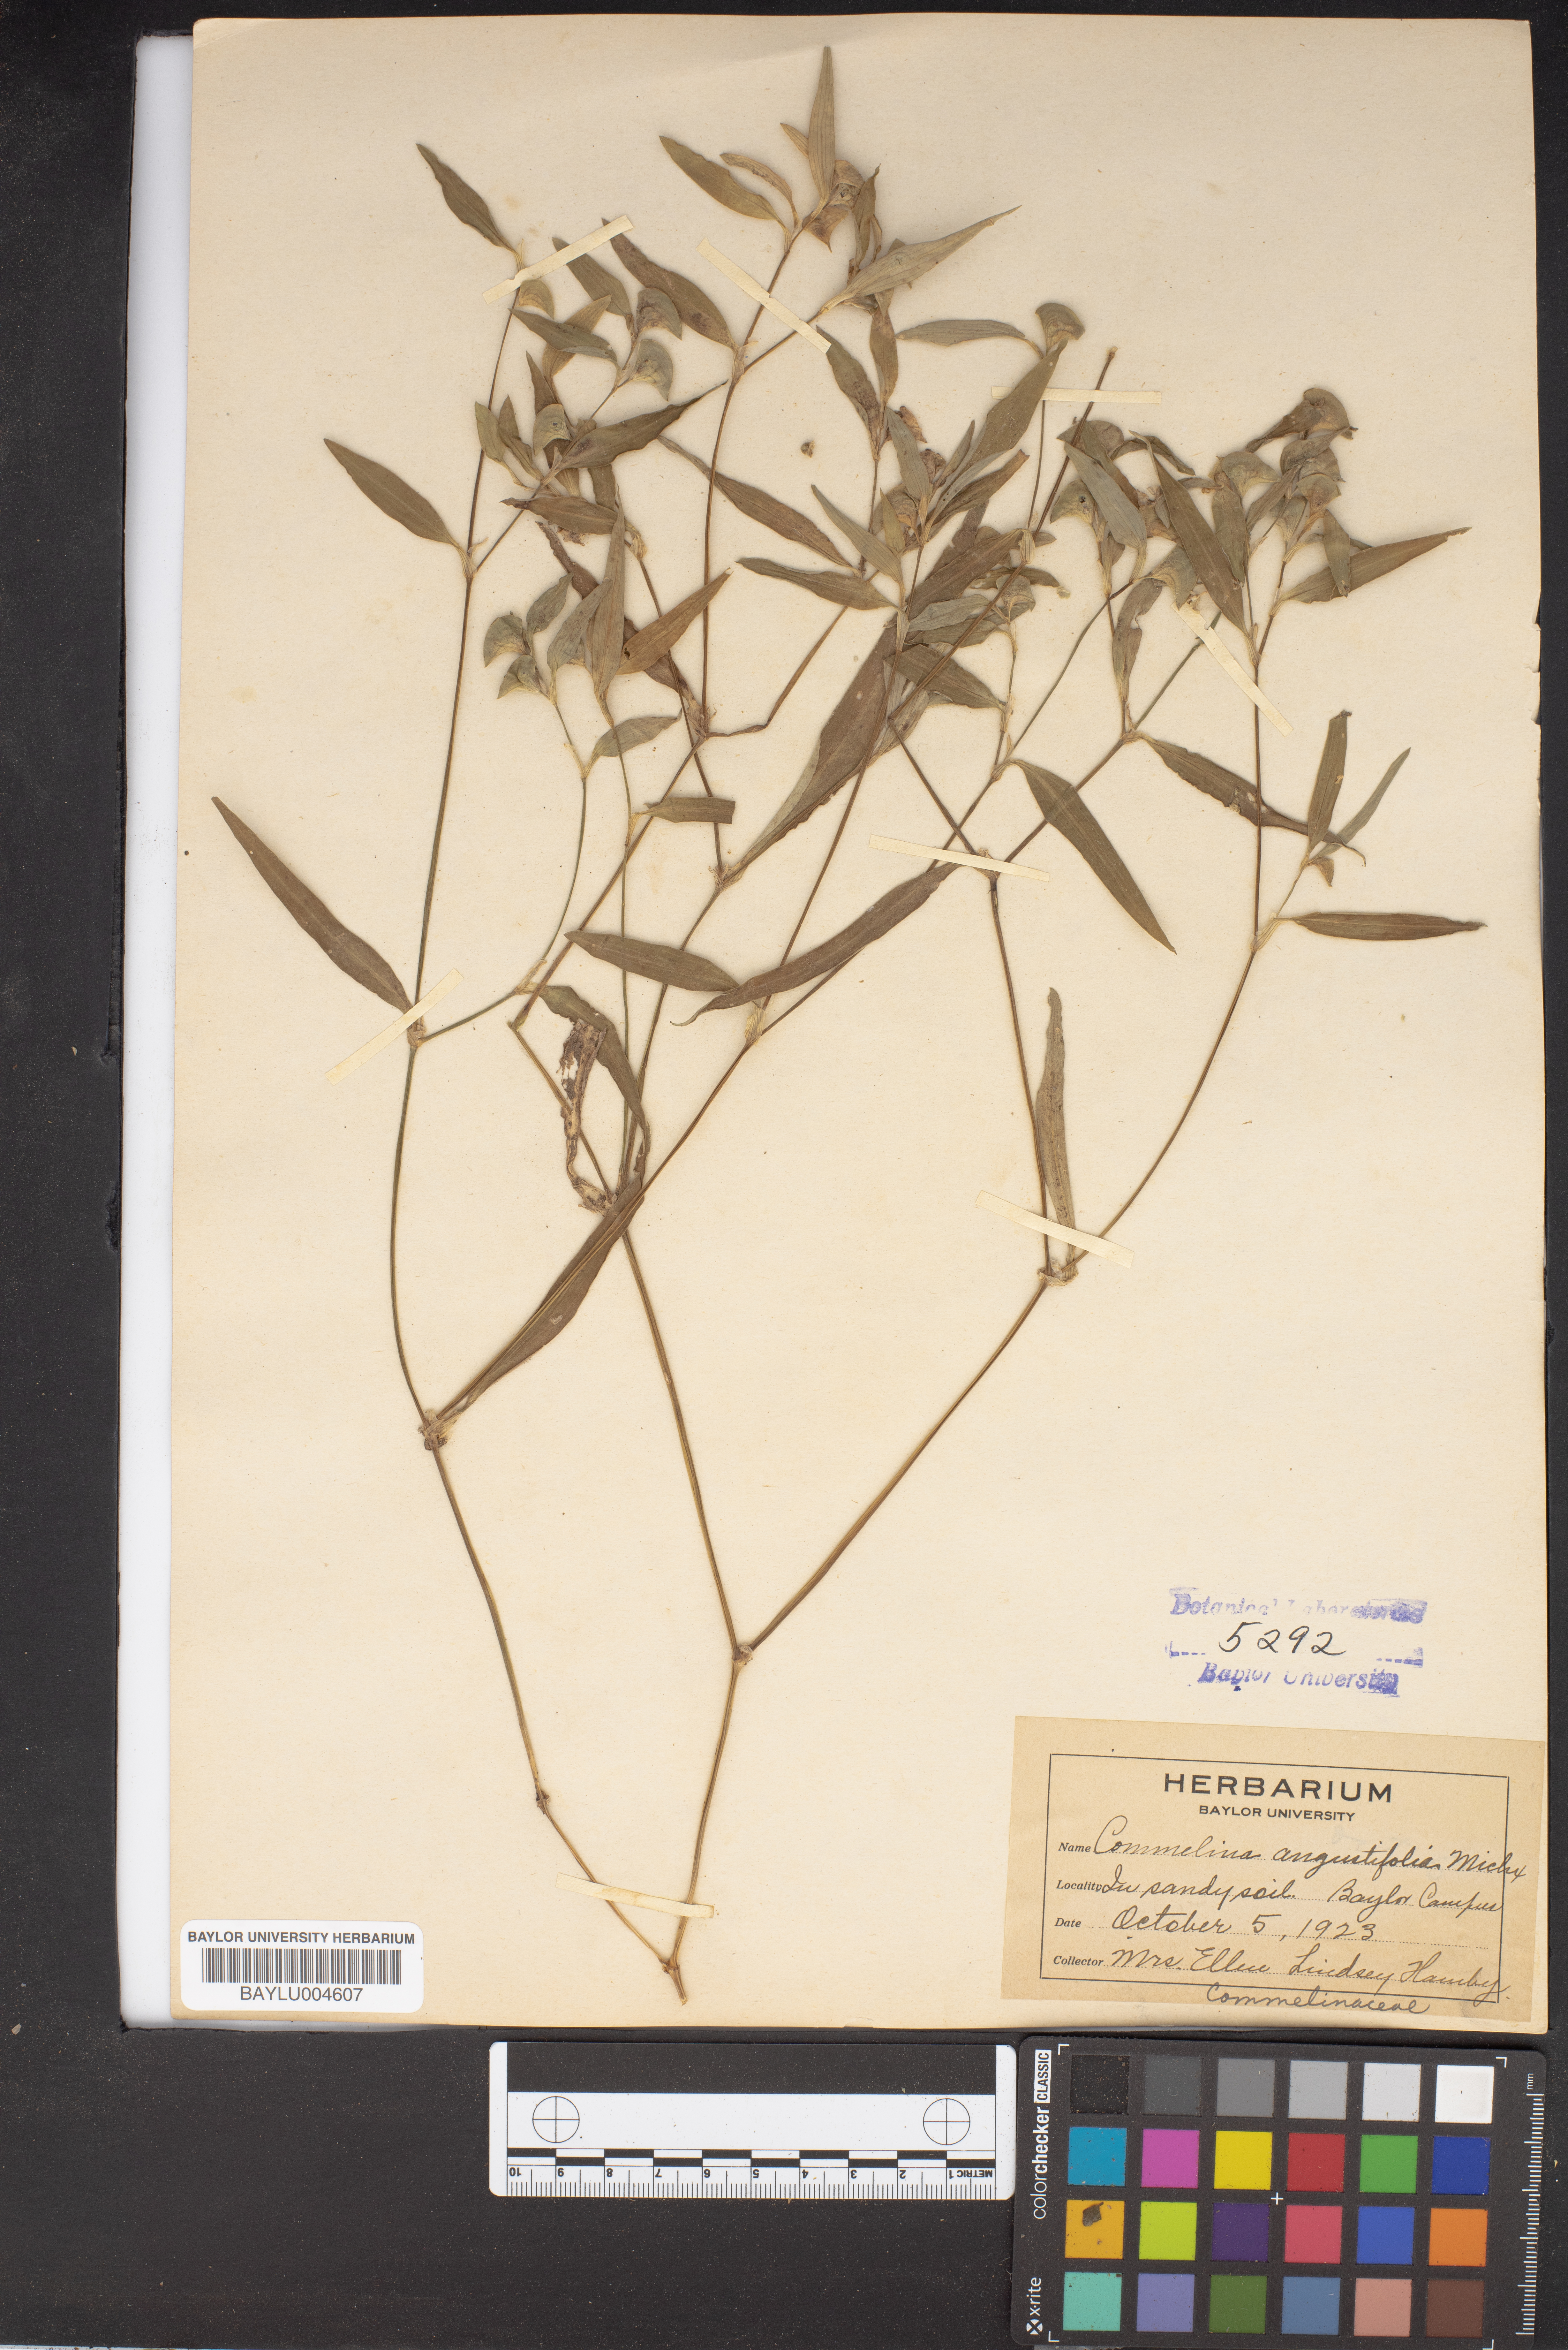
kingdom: Plantae
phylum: Tracheophyta
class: Liliopsida
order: Commelinales
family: Commelinaceae
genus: Commelina
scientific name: Commelina erecta
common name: Blousel blommetjie
